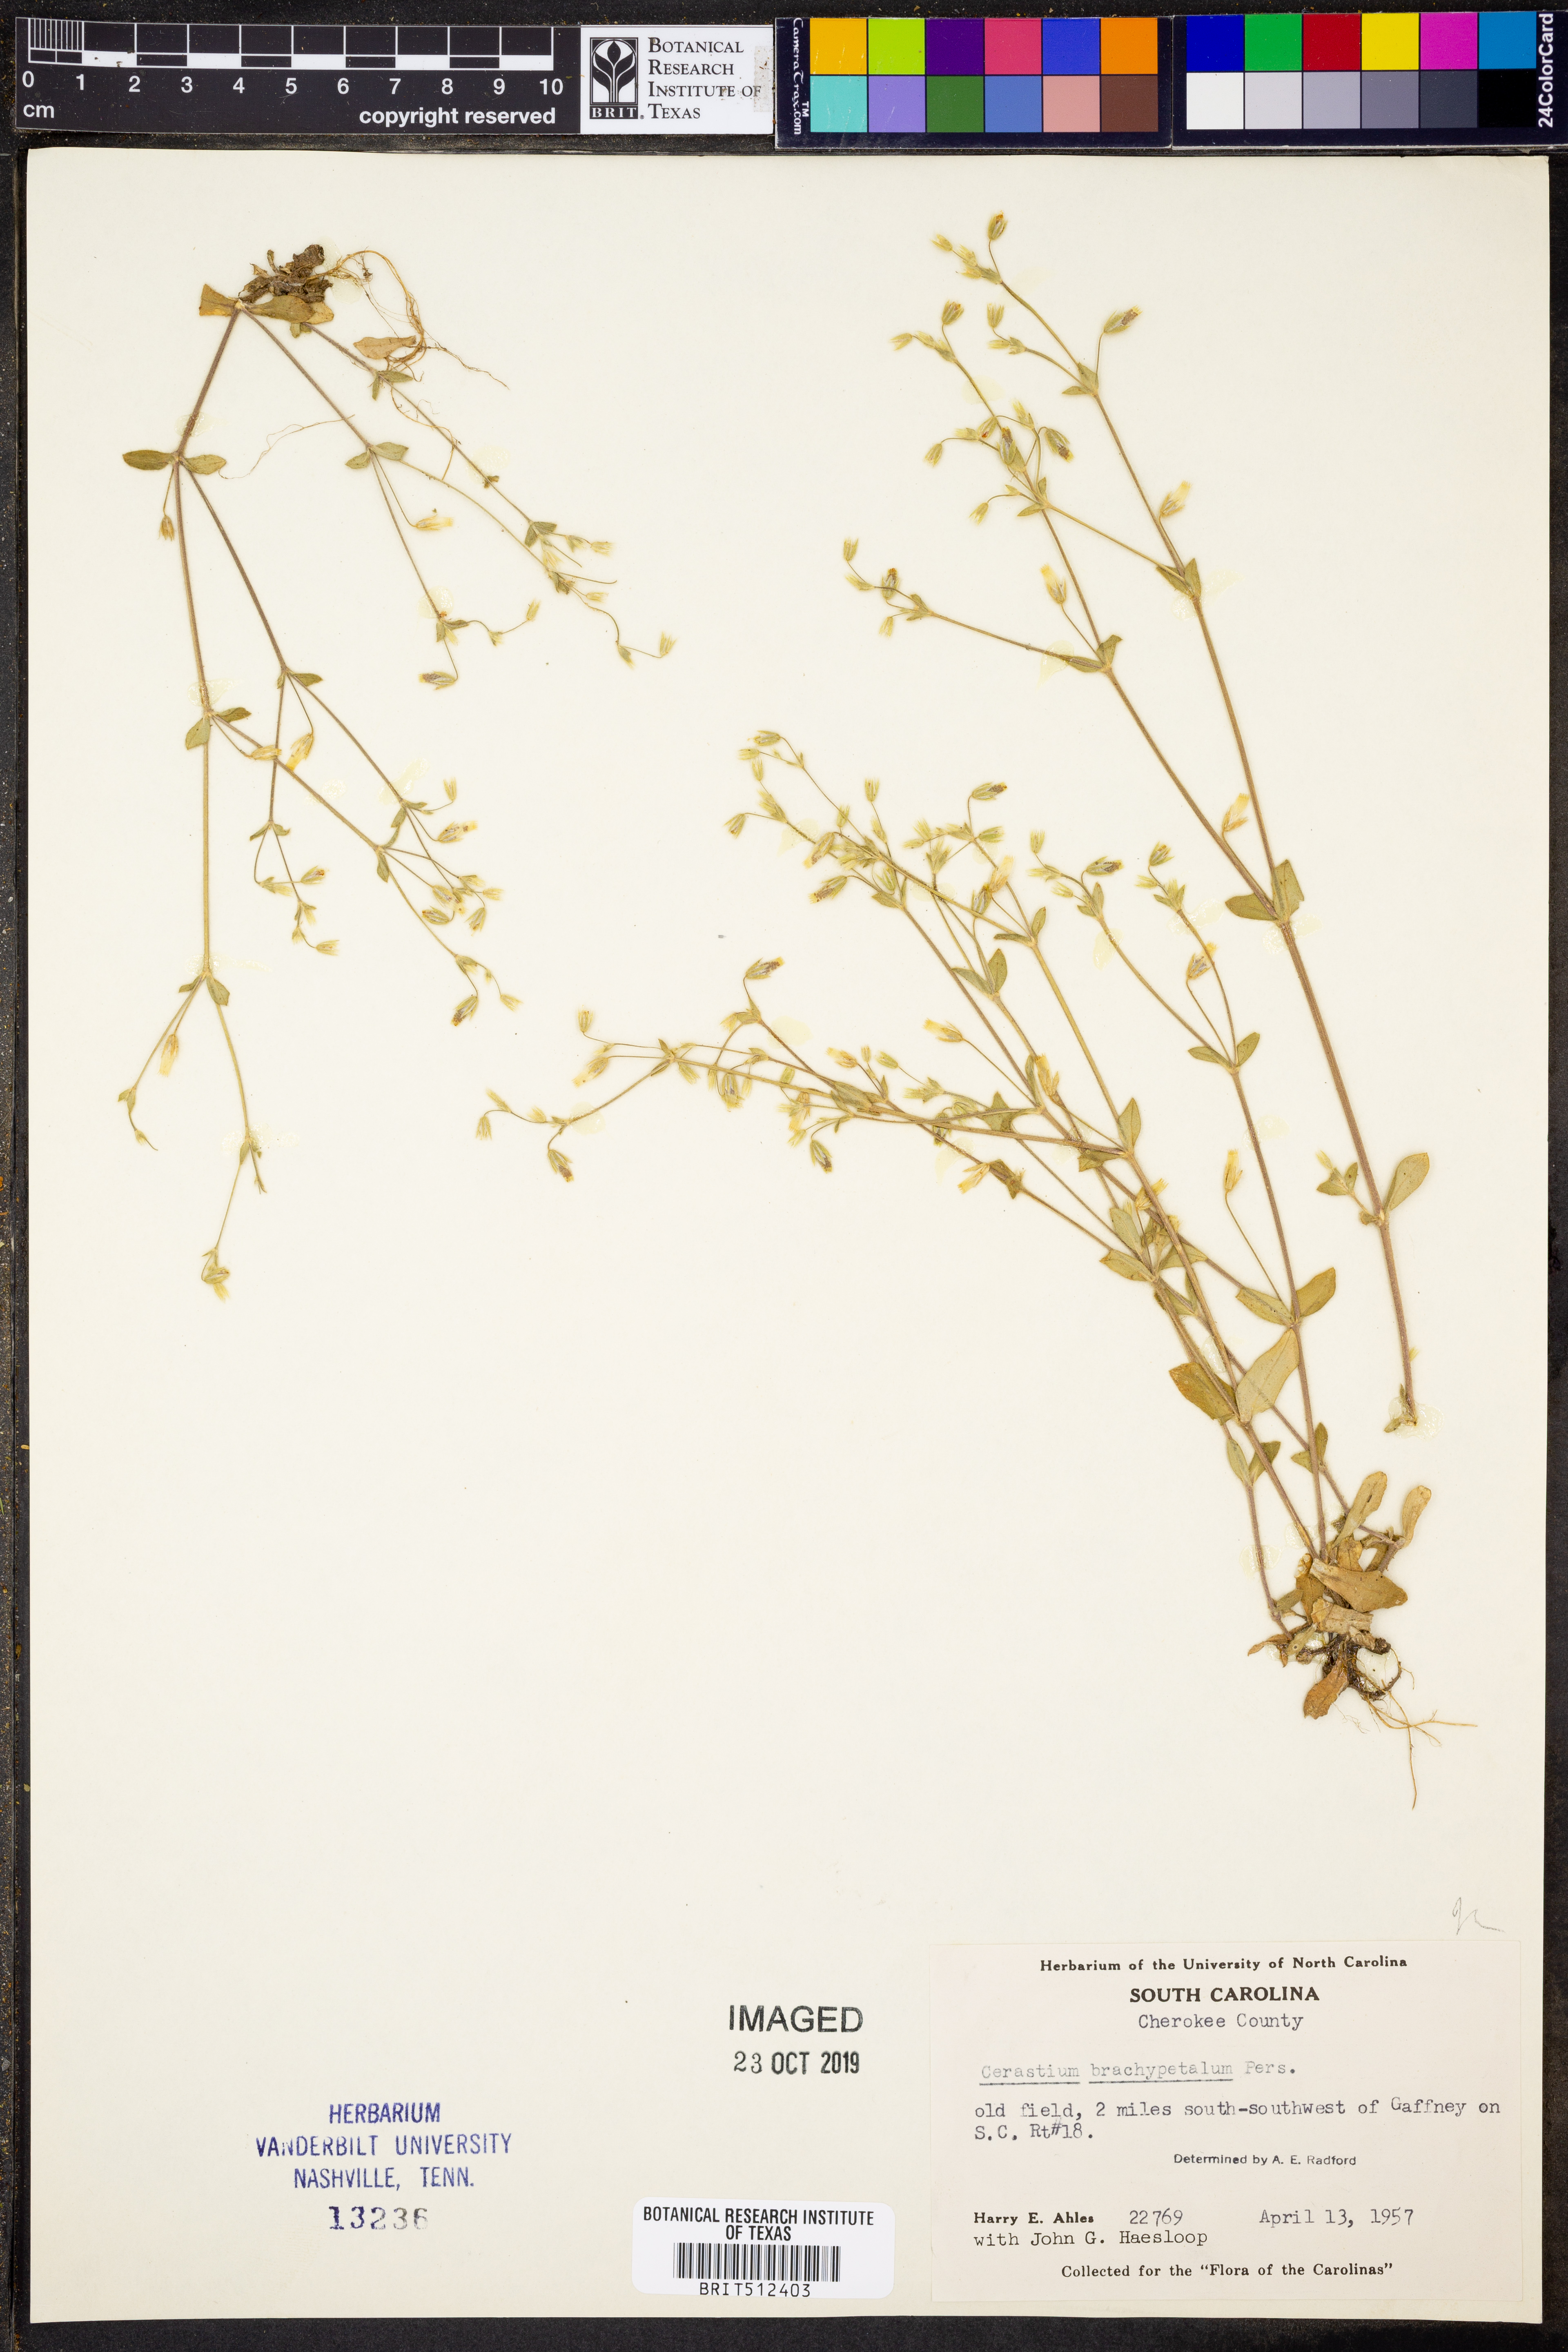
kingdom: Plantae
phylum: Tracheophyta
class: Magnoliopsida
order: Caryophyllales
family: Caryophyllaceae
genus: Cerastium
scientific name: Cerastium brachypetalum
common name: Grey mouse-ear
